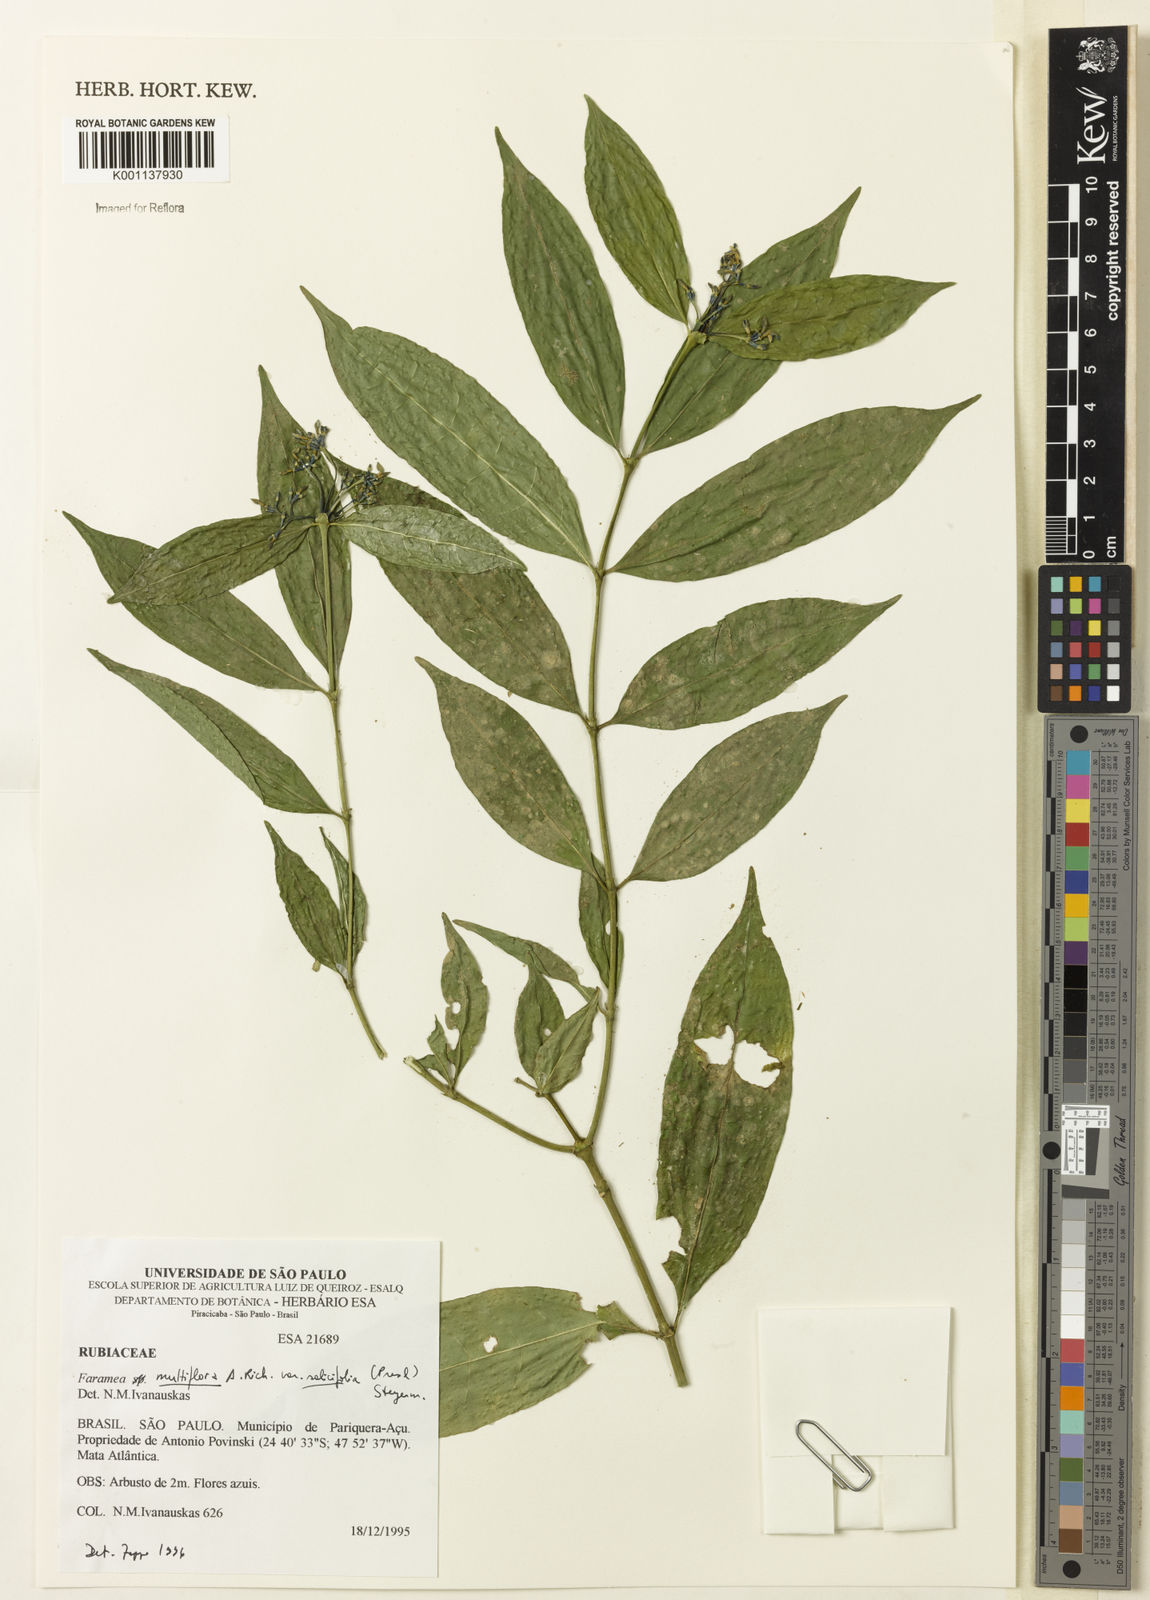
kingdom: Plantae
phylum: Tracheophyta
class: Magnoliopsida
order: Gentianales
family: Rubiaceae
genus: Faramea
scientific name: Faramea multiflora
